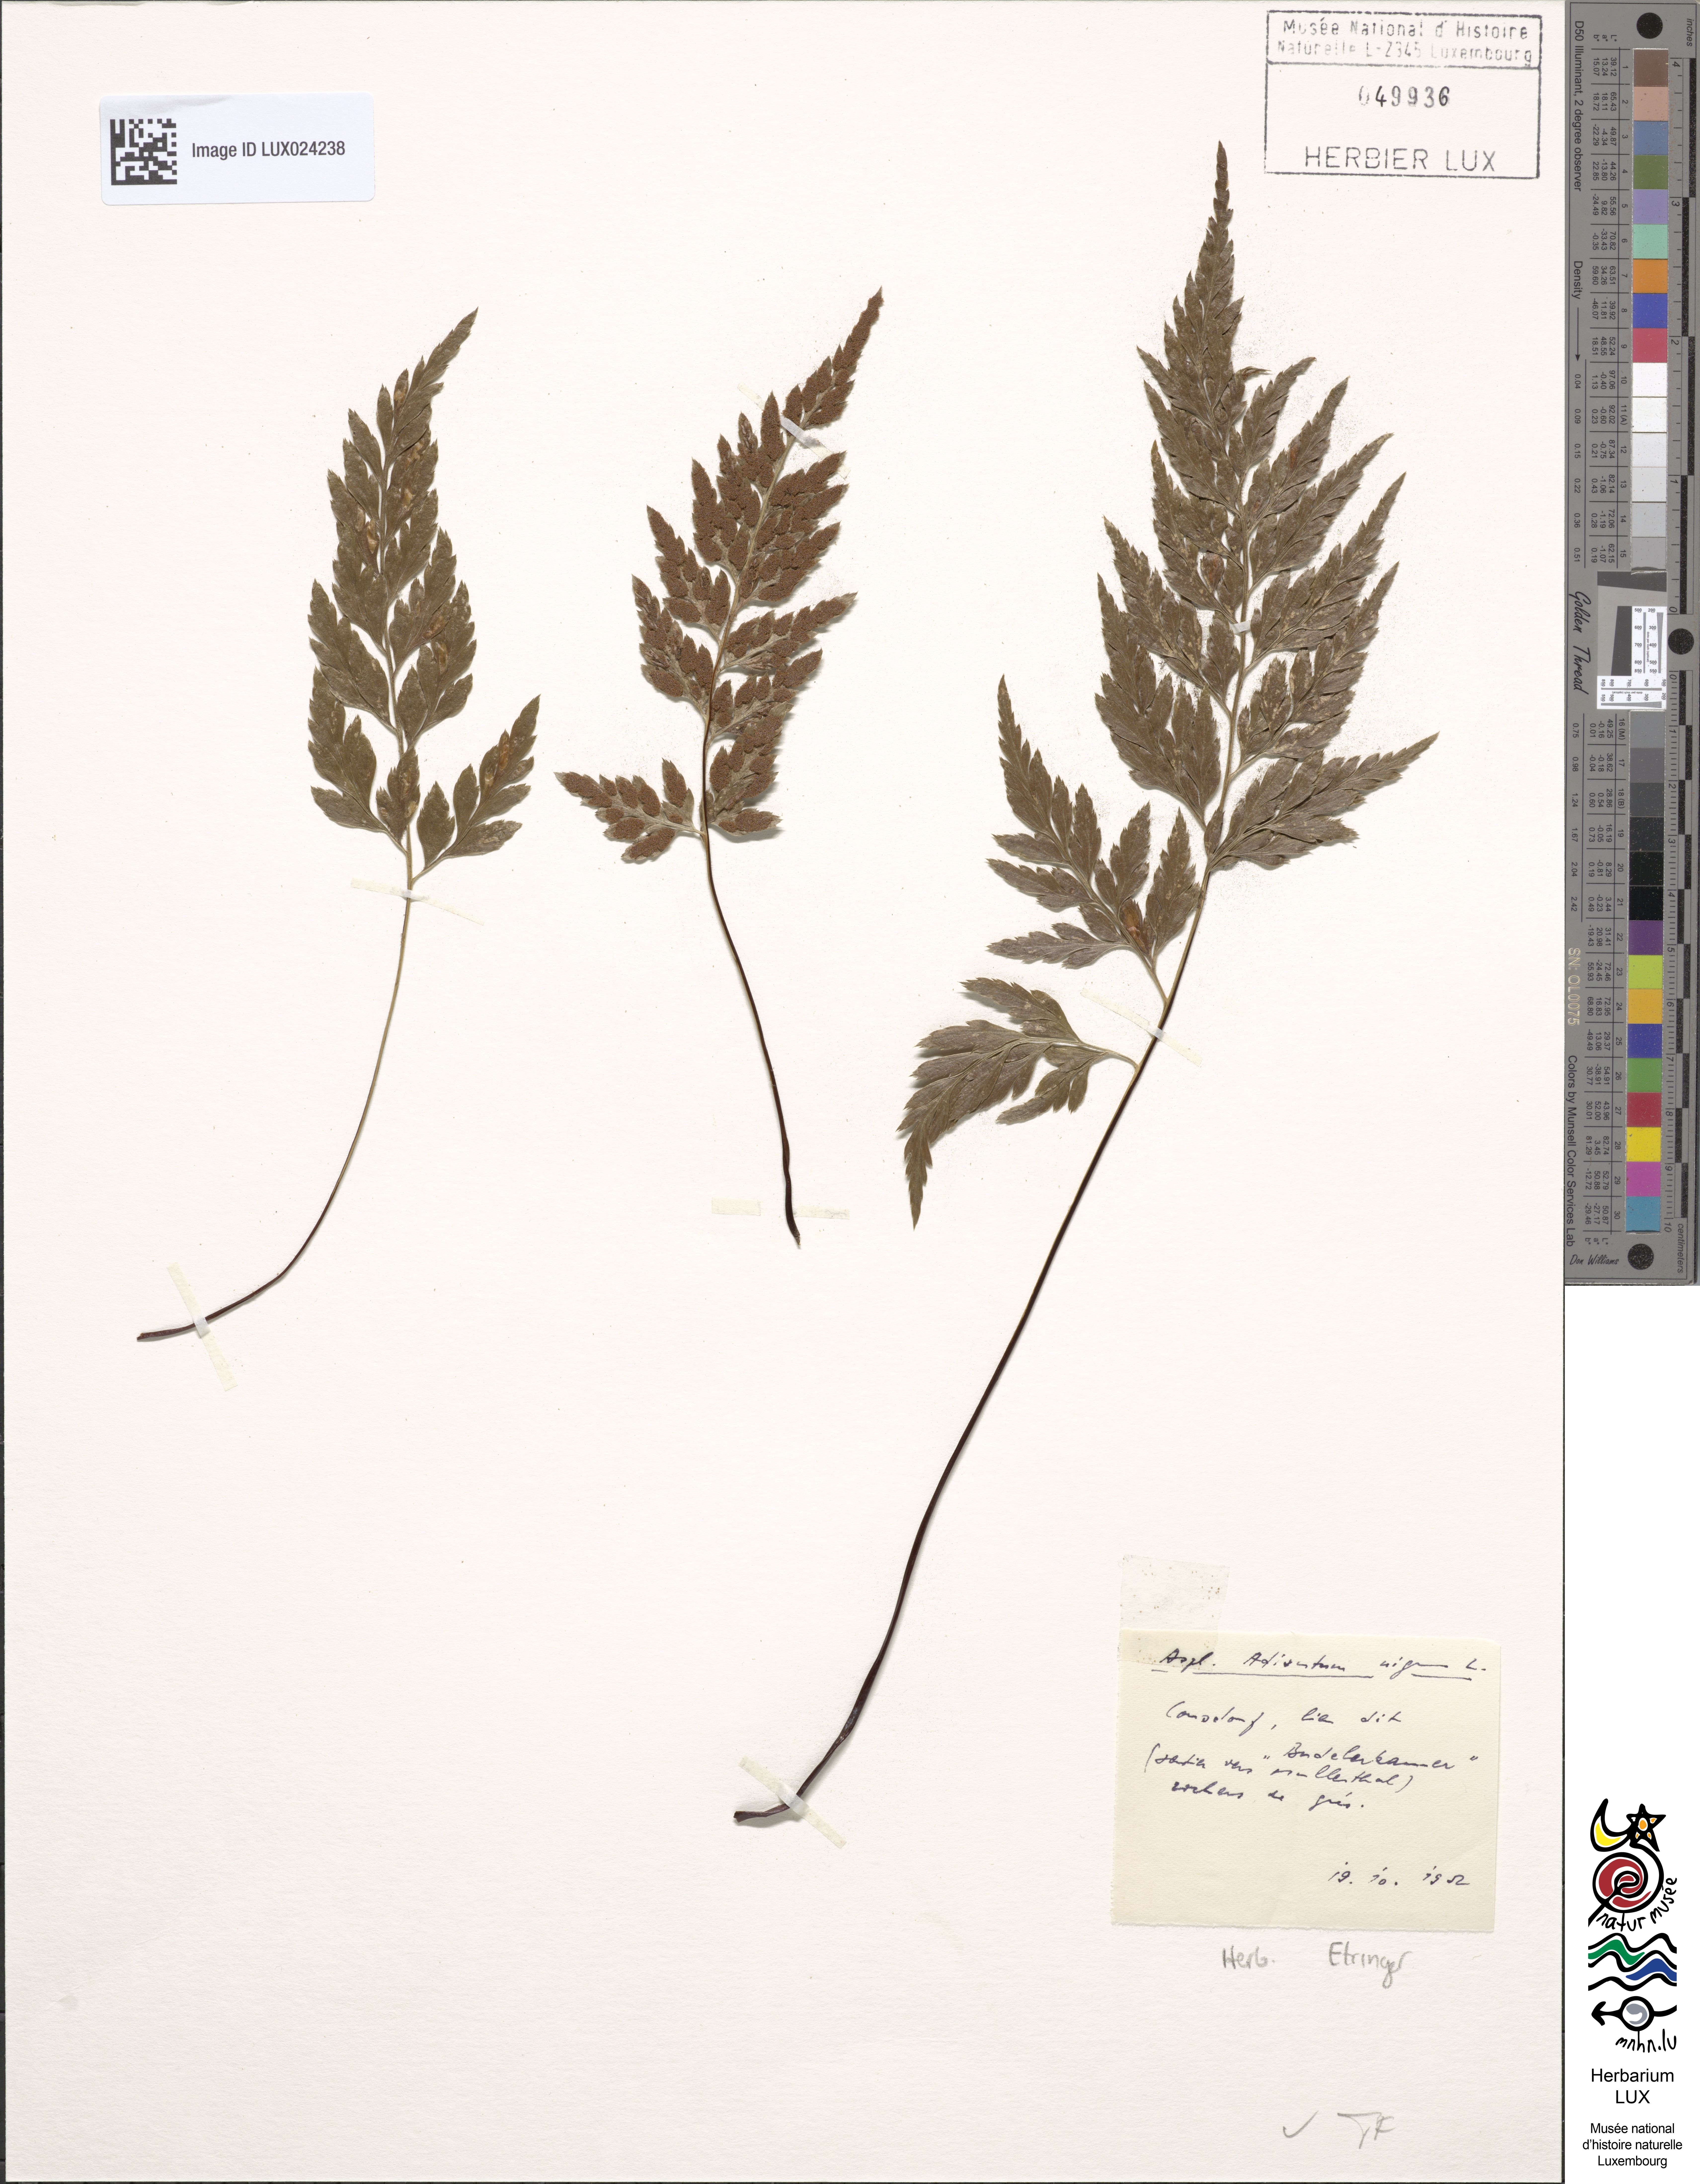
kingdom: Plantae
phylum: Tracheophyta
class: Polypodiopsida
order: Polypodiales
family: Aspleniaceae
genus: Asplenium
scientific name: Asplenium adiantum-nigrum
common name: Black spleenwort
